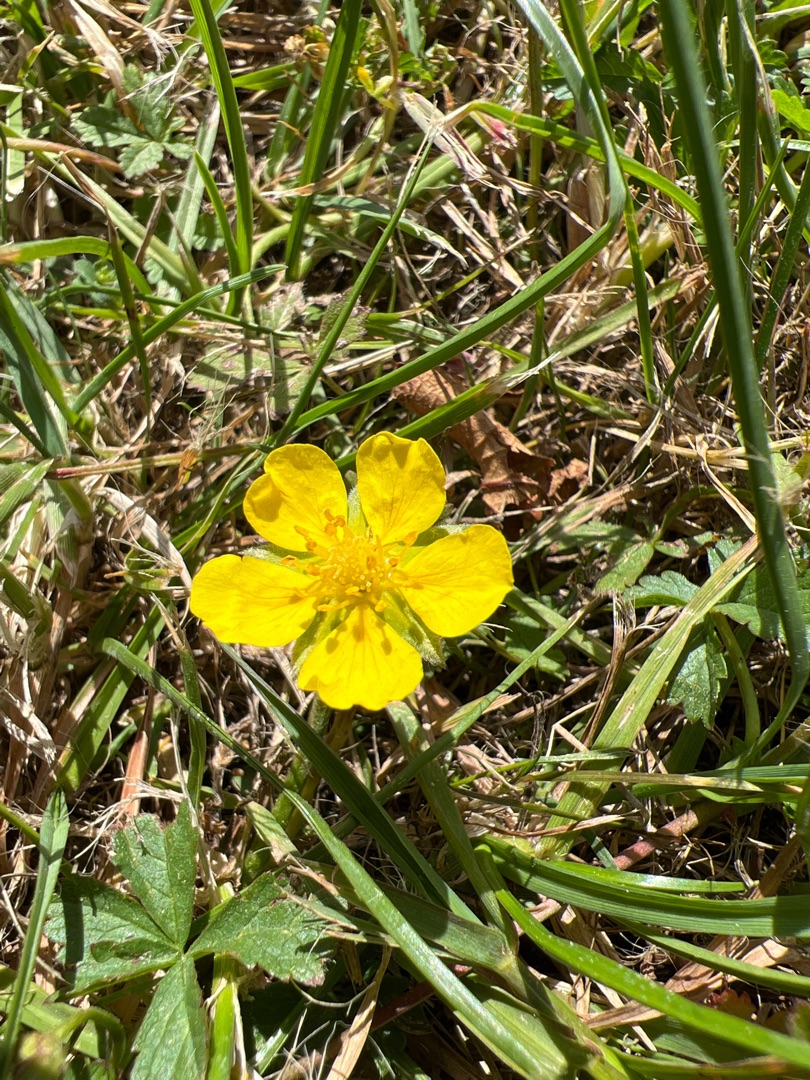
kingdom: Plantae
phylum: Tracheophyta
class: Magnoliopsida
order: Rosales
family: Rosaceae
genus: Potentilla
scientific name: Potentilla reptans
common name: Krybende potentil
